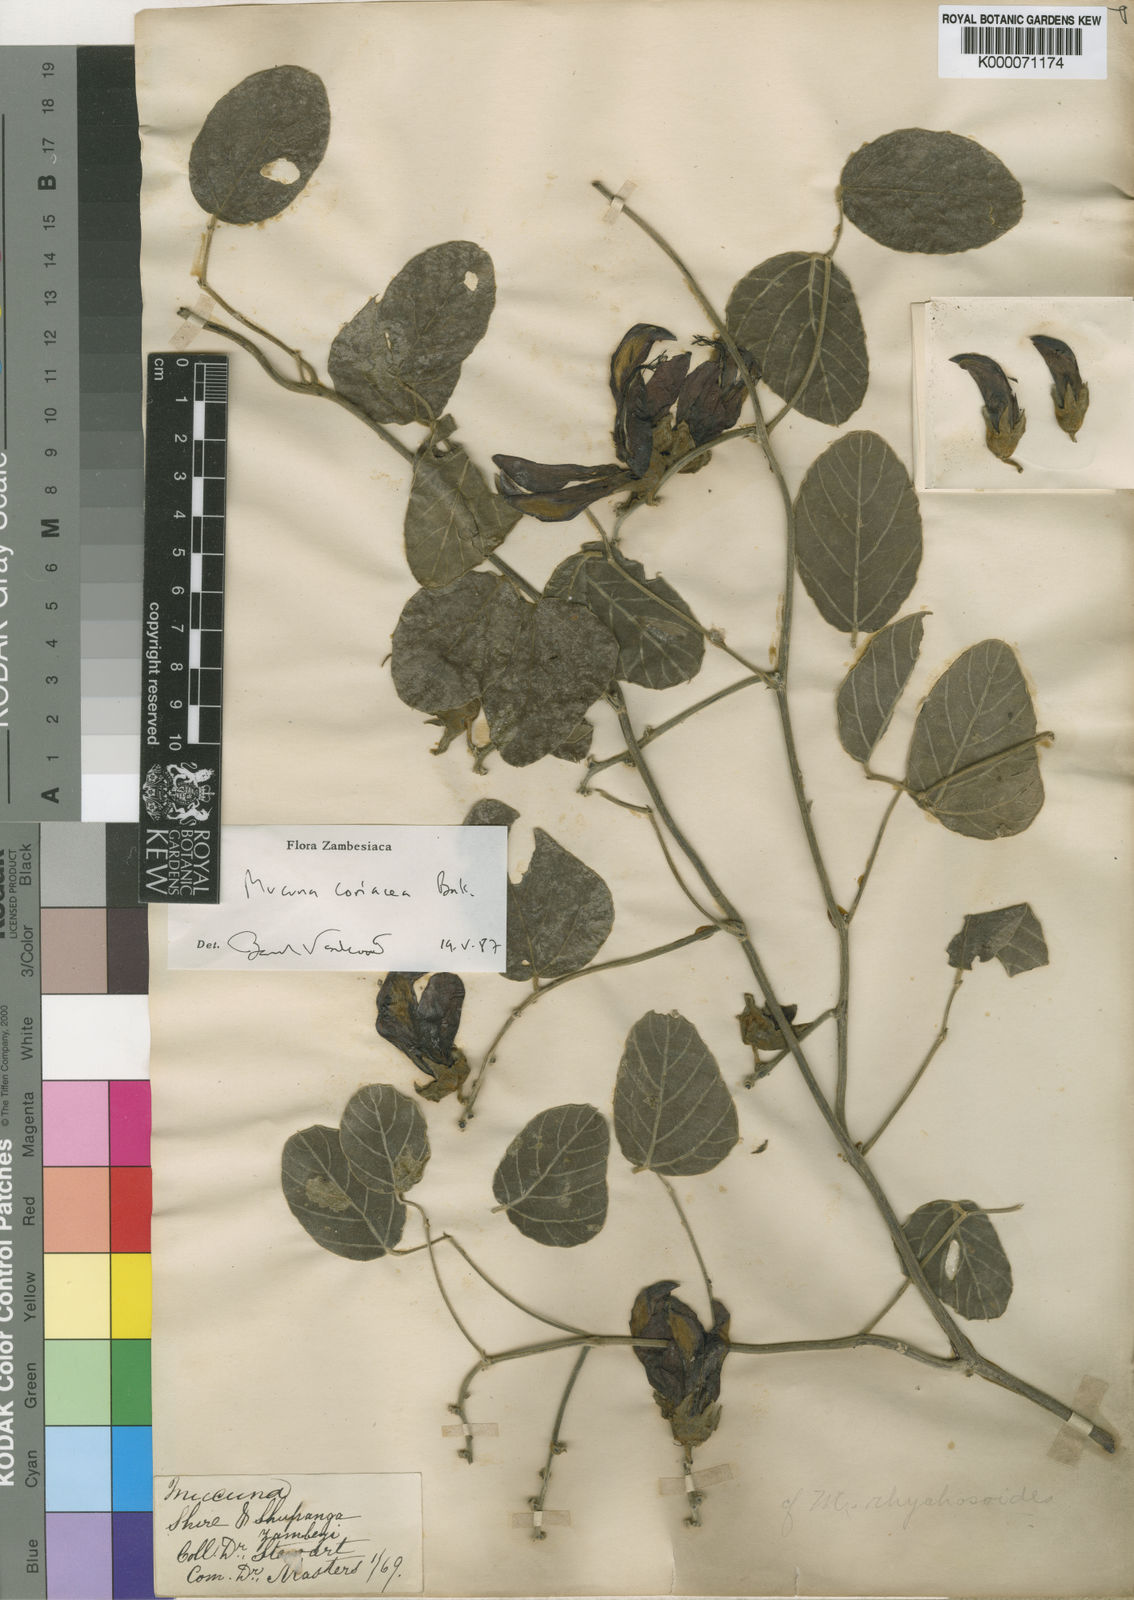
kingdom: Plantae
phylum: Tracheophyta
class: Magnoliopsida
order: Fabales
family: Fabaceae
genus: Mucuna
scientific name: Mucuna coriacea
